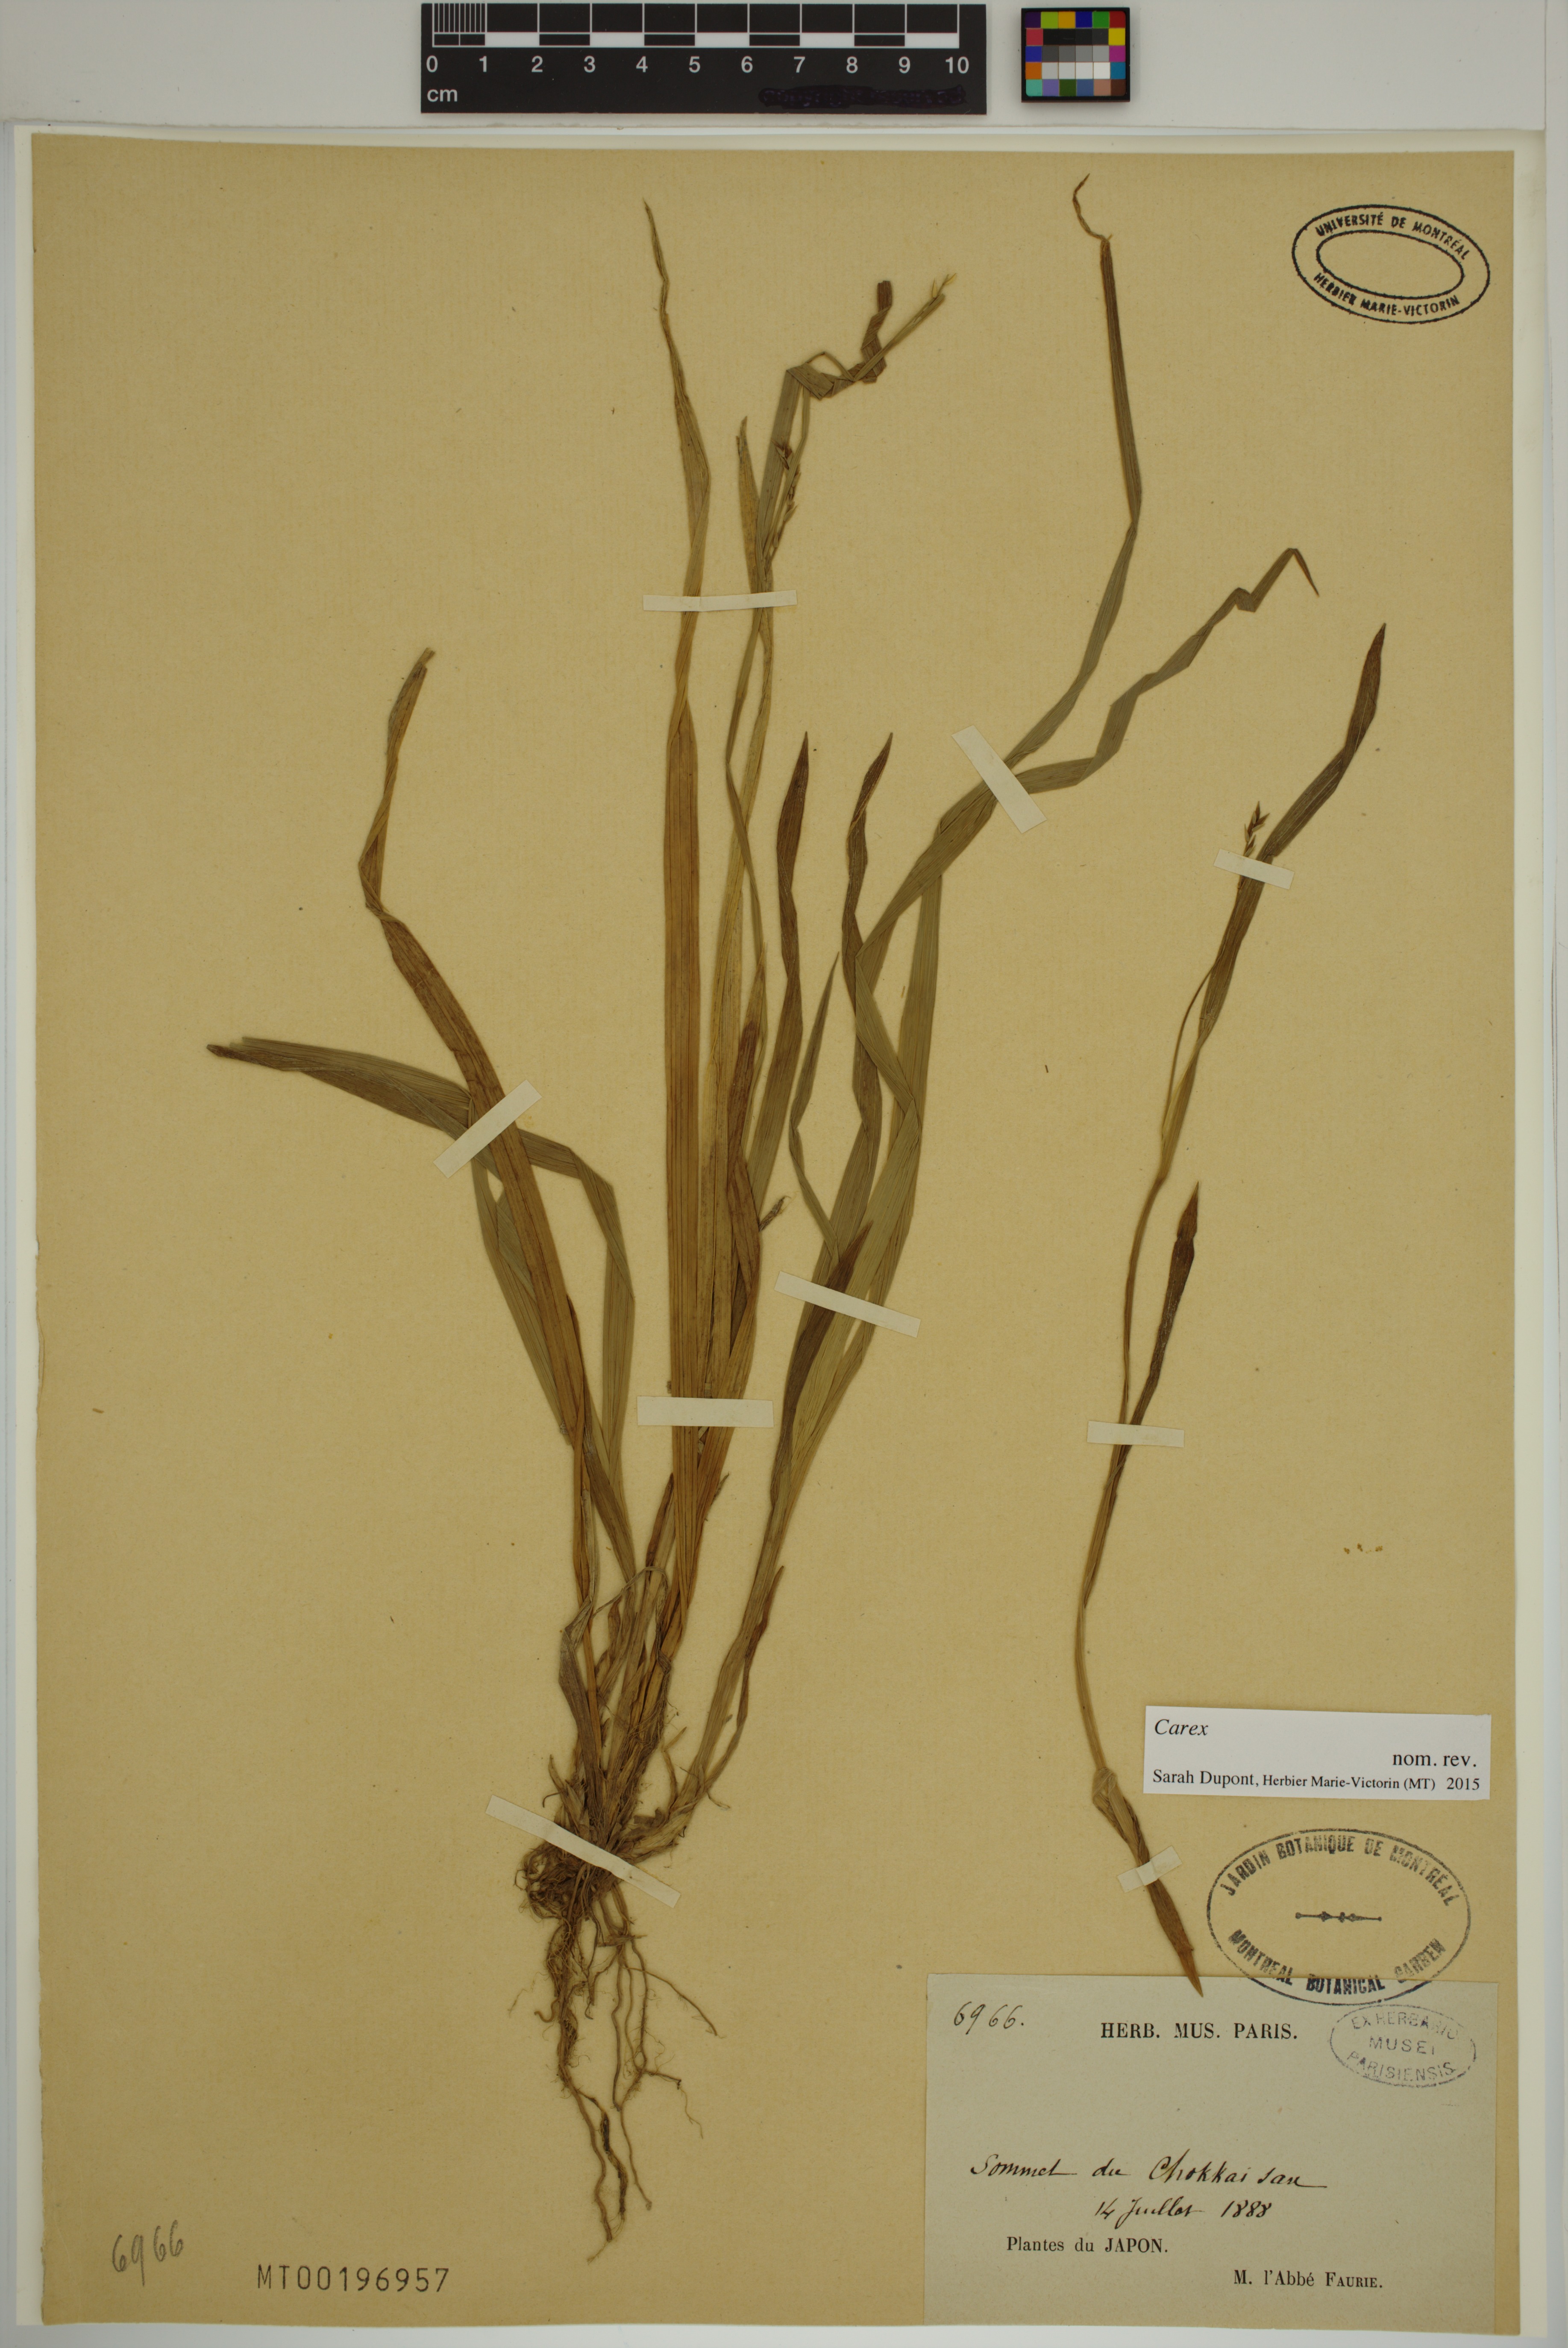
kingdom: Plantae
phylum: Tracheophyta
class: Liliopsida
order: Poales
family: Cyperaceae
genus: Carex
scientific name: Carex
